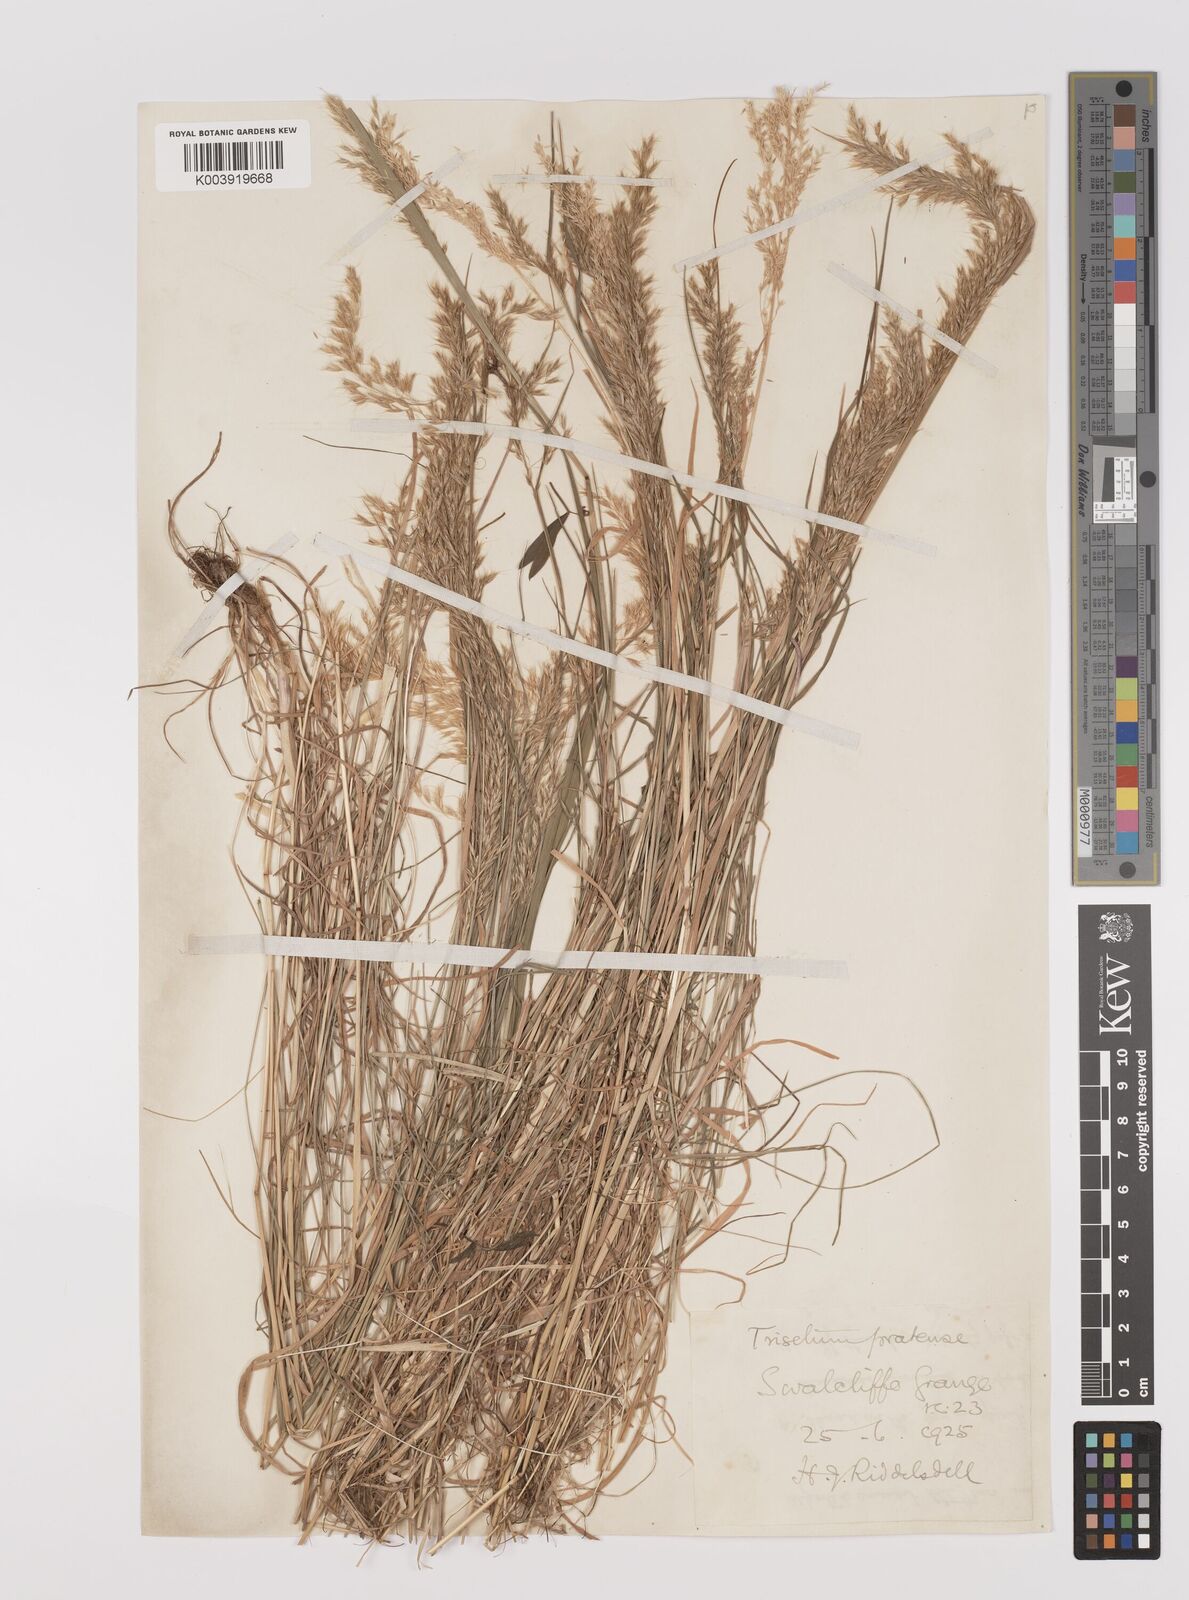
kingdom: Plantae
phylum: Tracheophyta
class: Liliopsida
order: Poales
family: Poaceae
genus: Trisetum
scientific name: Trisetum flavescens
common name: Yellow oat-grass
